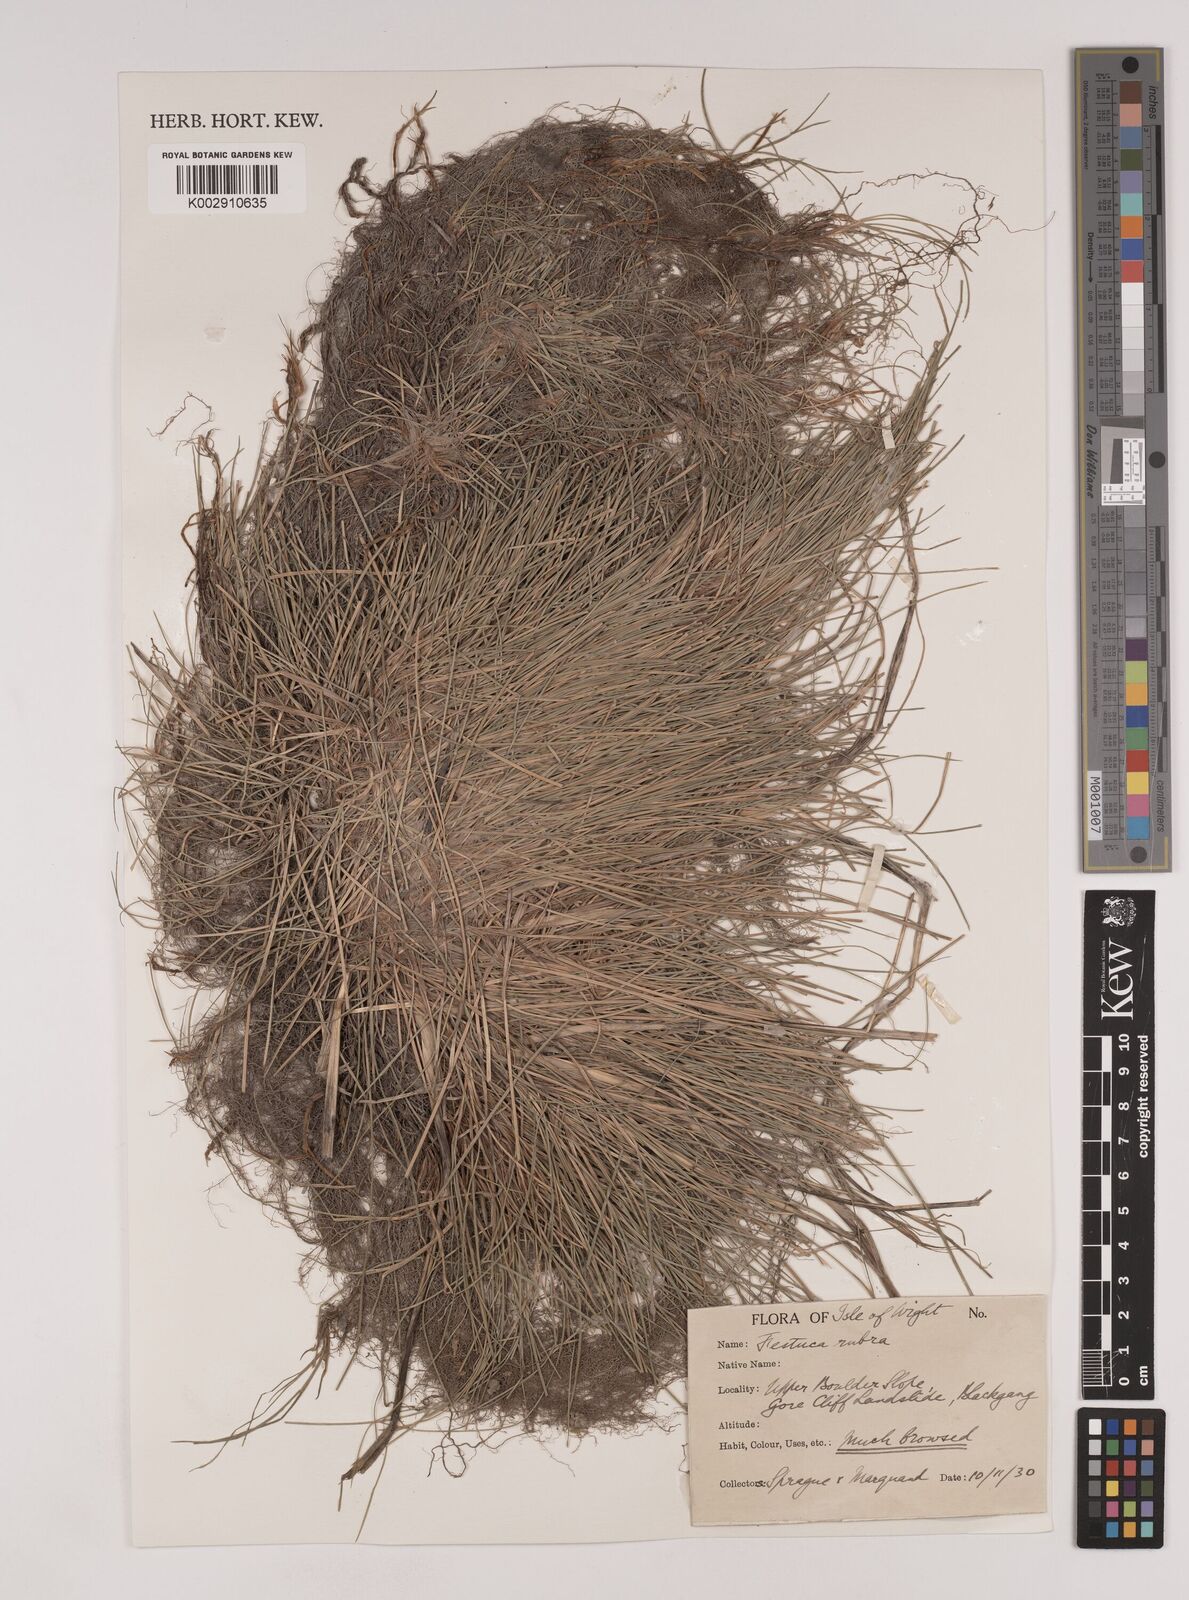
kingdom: Plantae
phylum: Tracheophyta
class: Liliopsida
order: Poales
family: Poaceae
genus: Festuca
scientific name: Festuca rubra
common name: Red fescue
